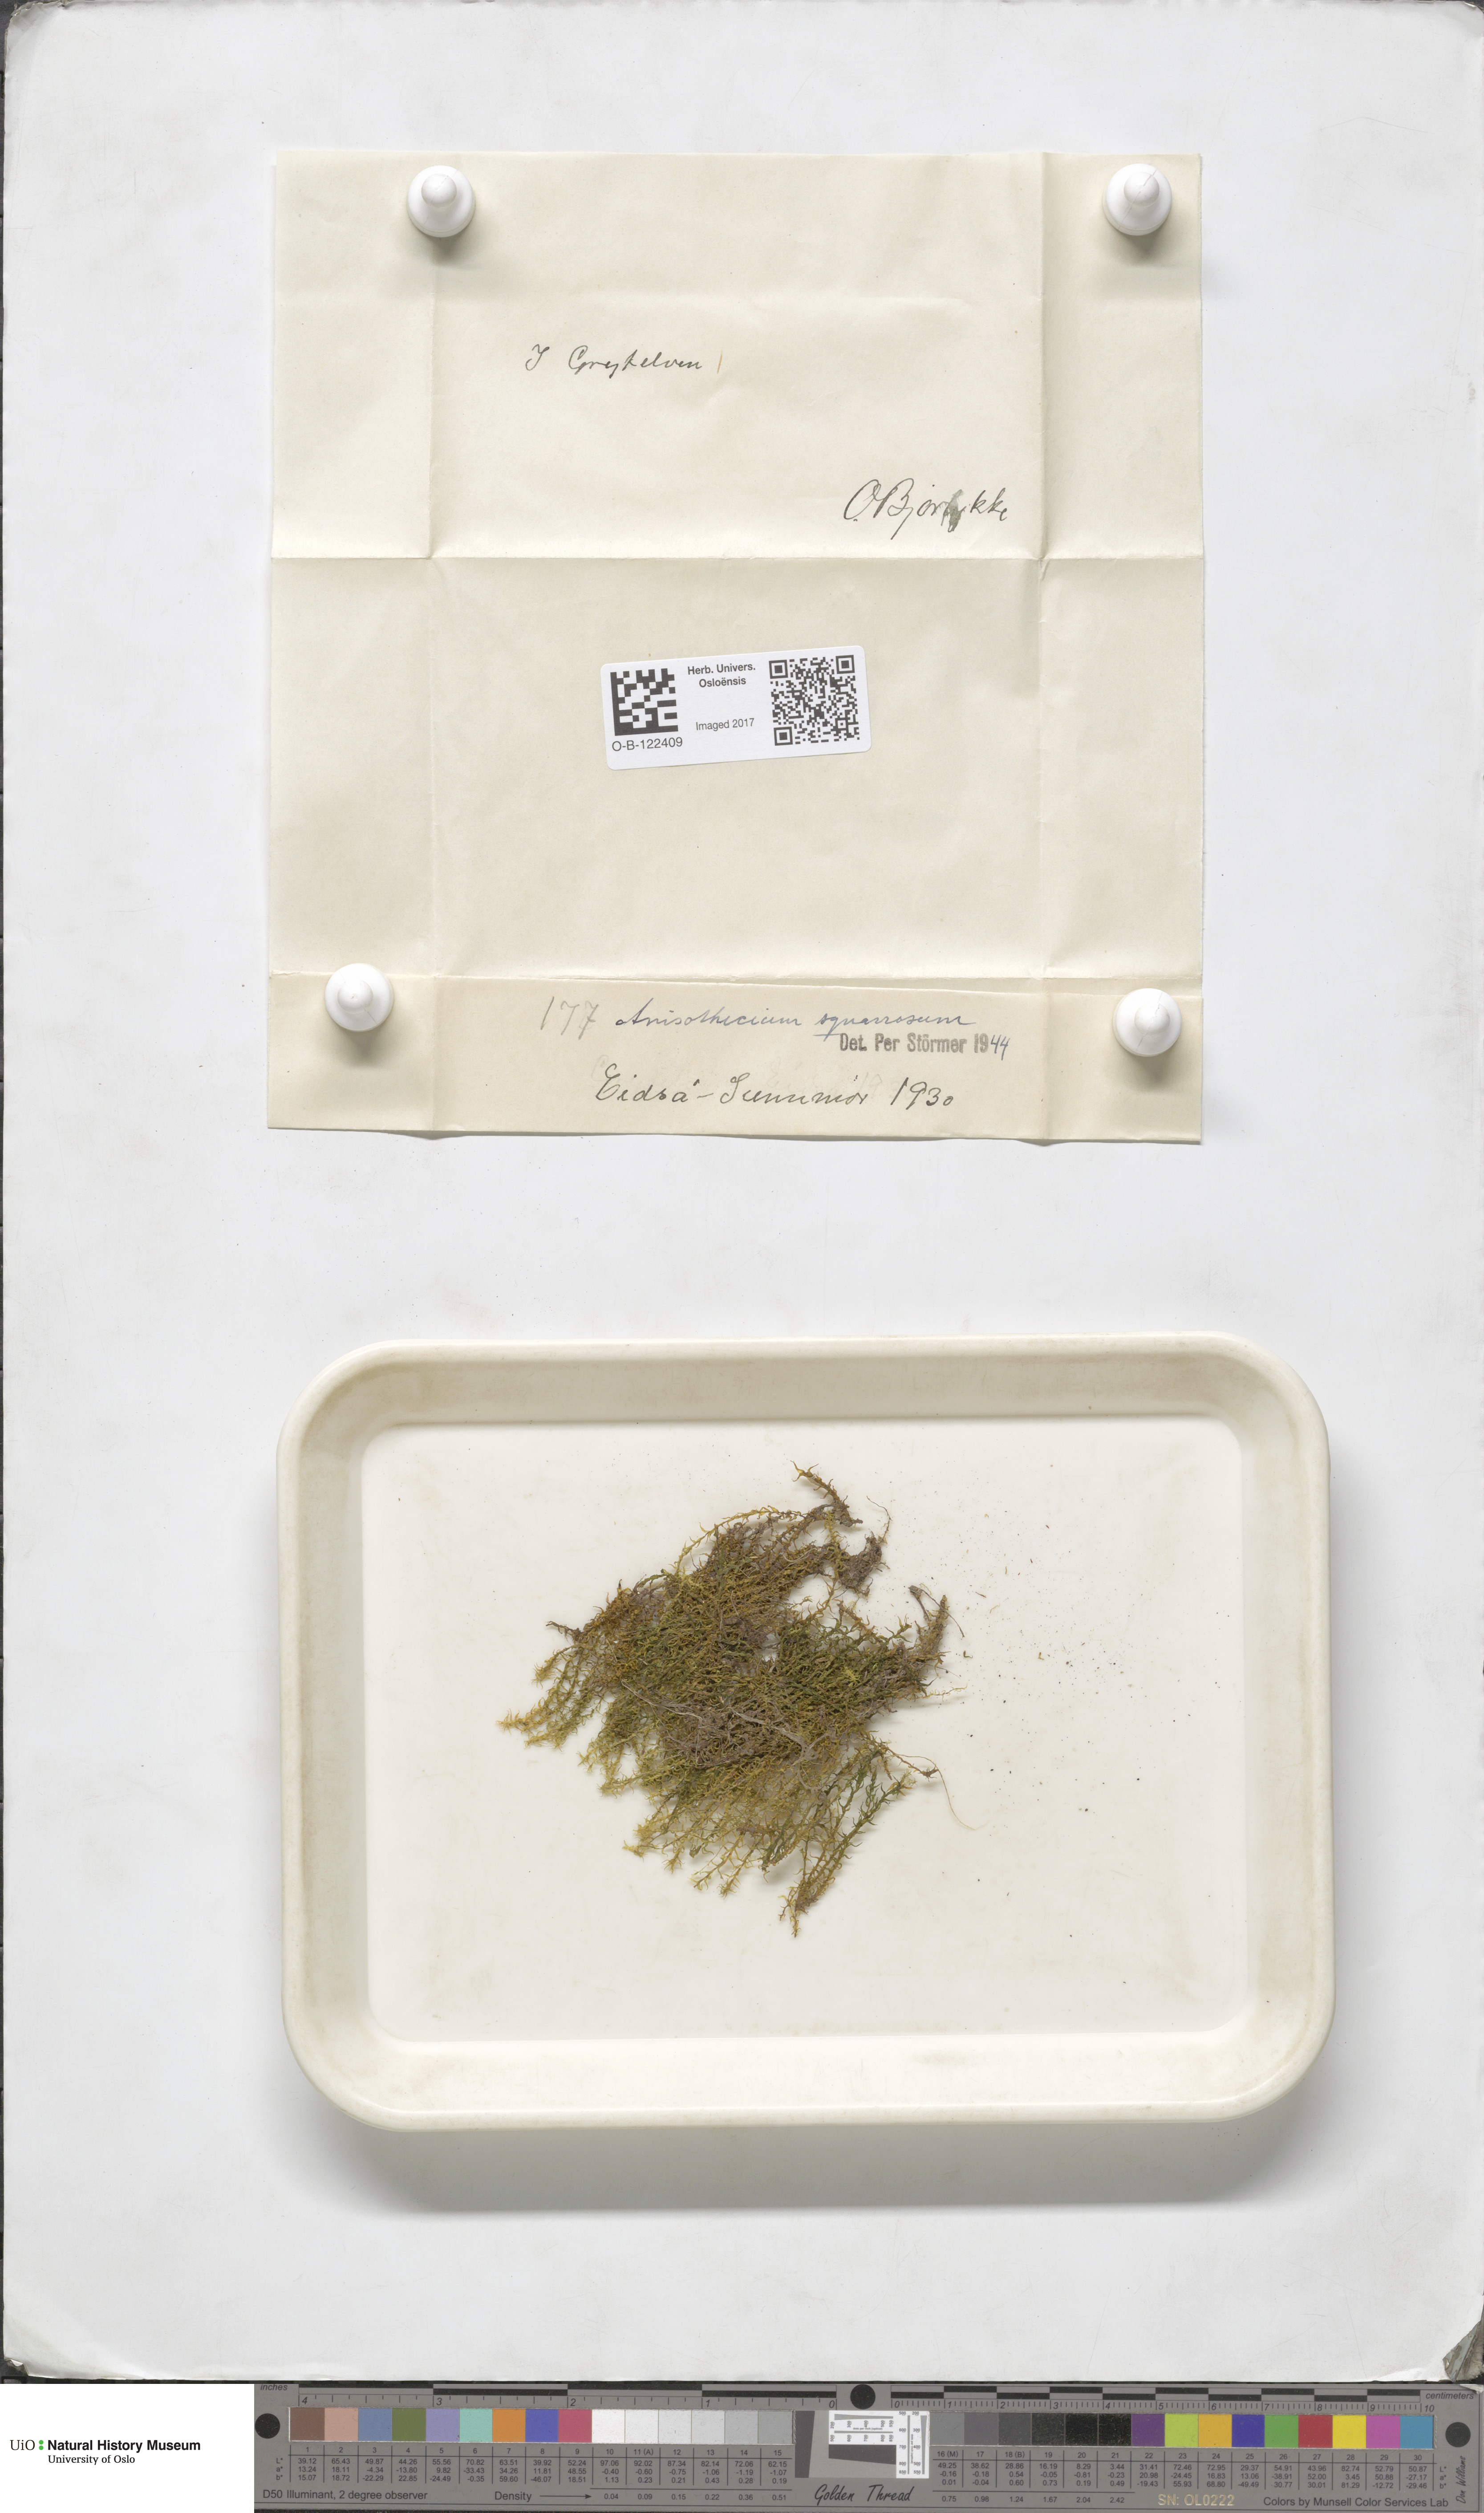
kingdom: Plantae
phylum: Bryophyta
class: Bryopsida
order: Dicranales
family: Aongstroemiaceae
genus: Diobelonella
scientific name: Diobelonella palustris
